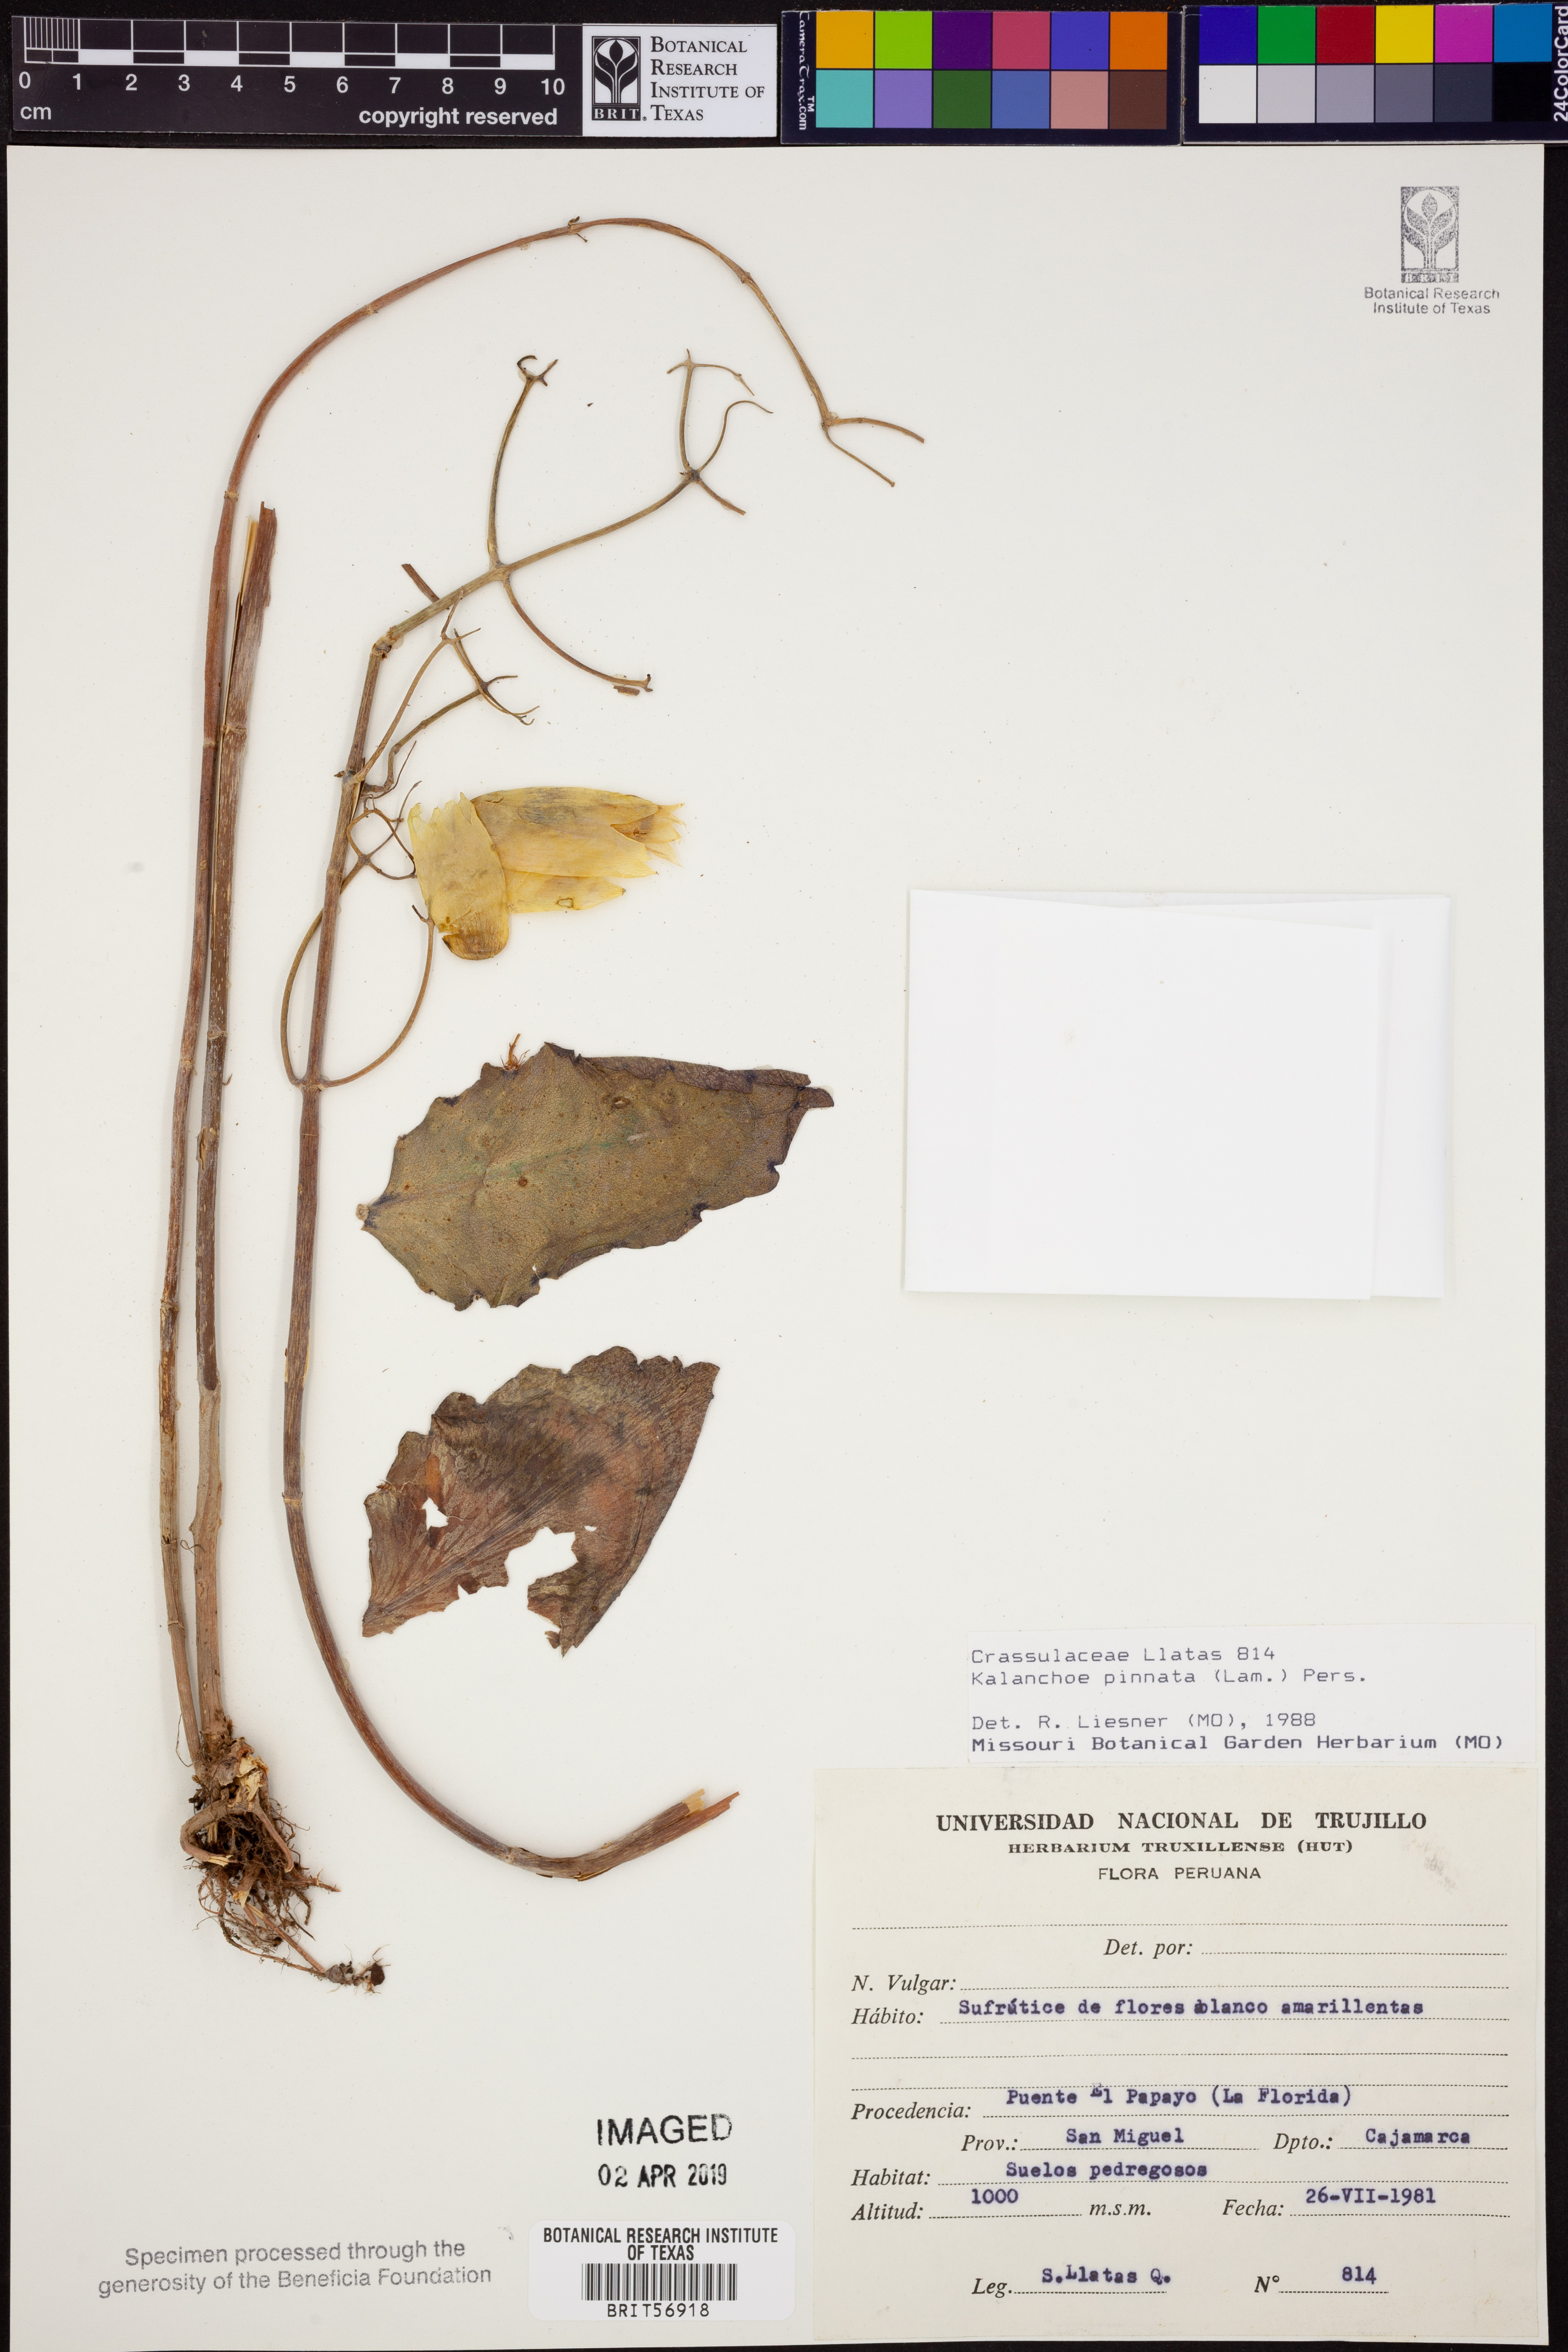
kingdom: Plantae
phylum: Tracheophyta
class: Magnoliopsida
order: Saxifragales
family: Crassulaceae
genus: Kalanchoe
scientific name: Kalanchoe pinnata
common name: Cathedral bells
